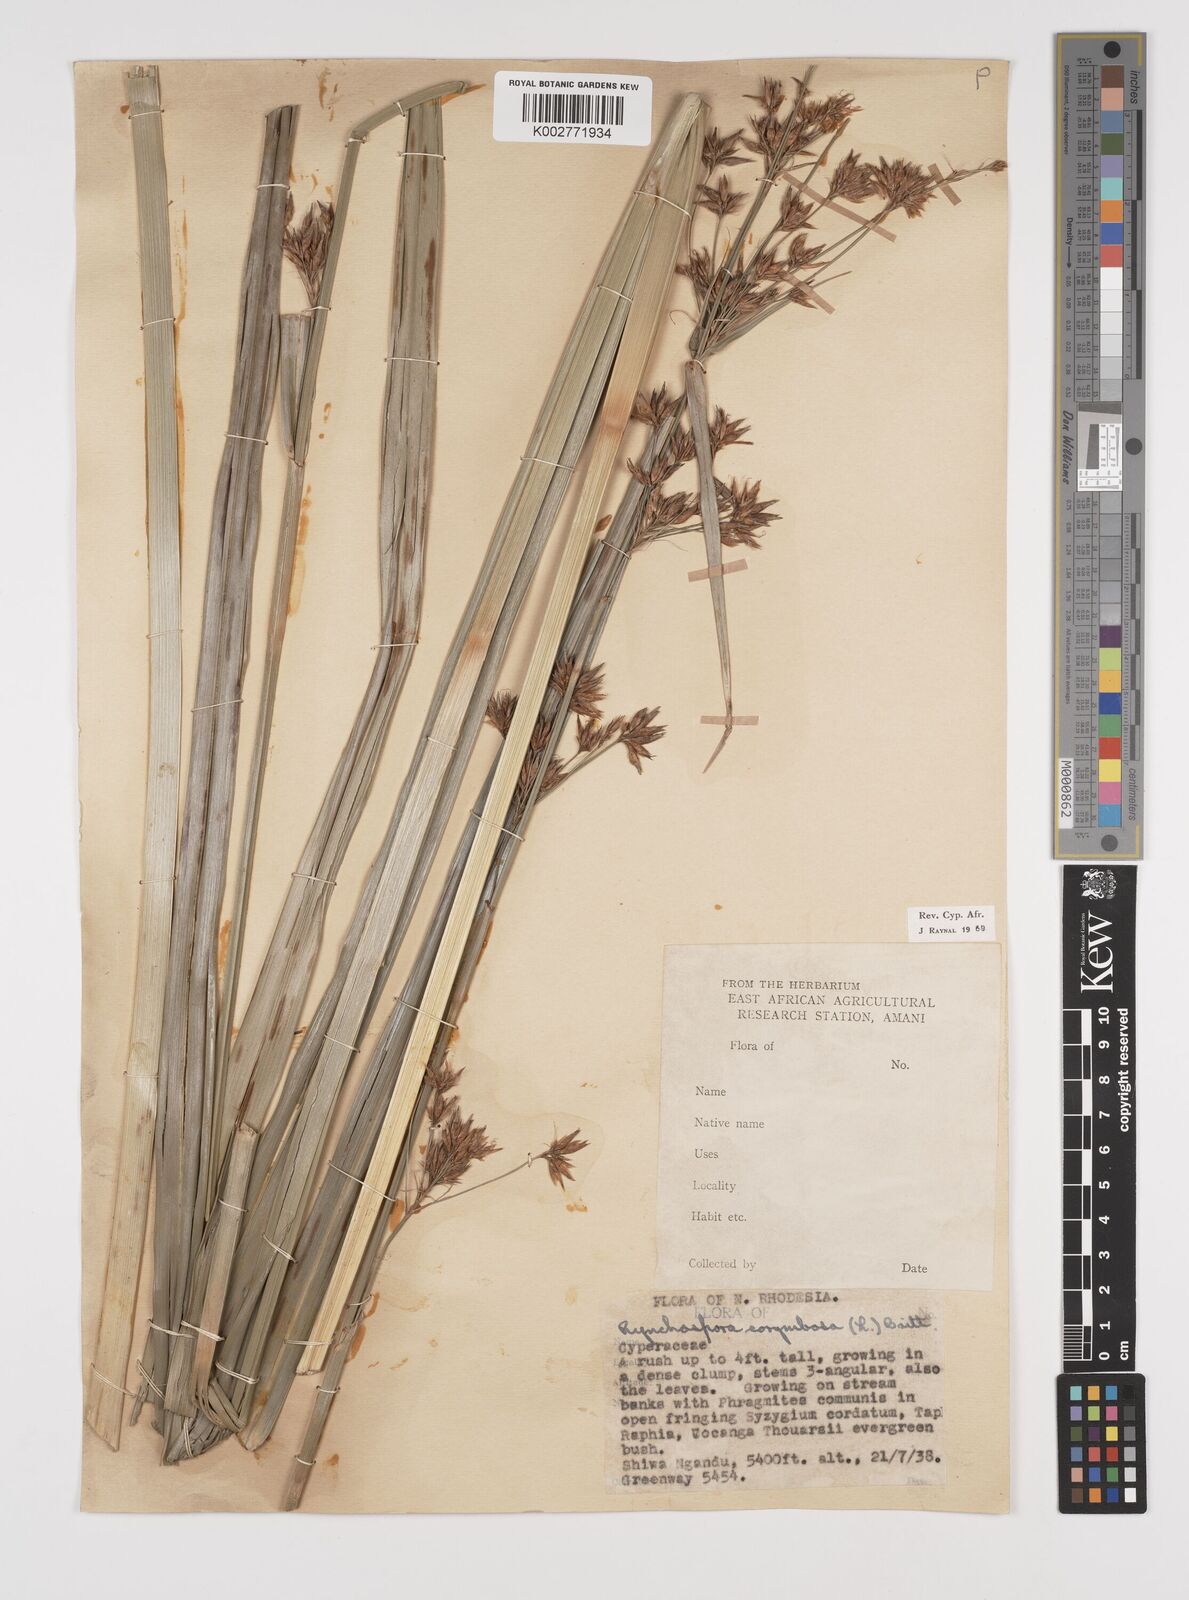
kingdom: Plantae
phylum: Tracheophyta
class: Liliopsida
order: Poales
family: Cyperaceae
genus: Rhynchospora
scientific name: Rhynchospora corymbosa
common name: Golden beak sedge
